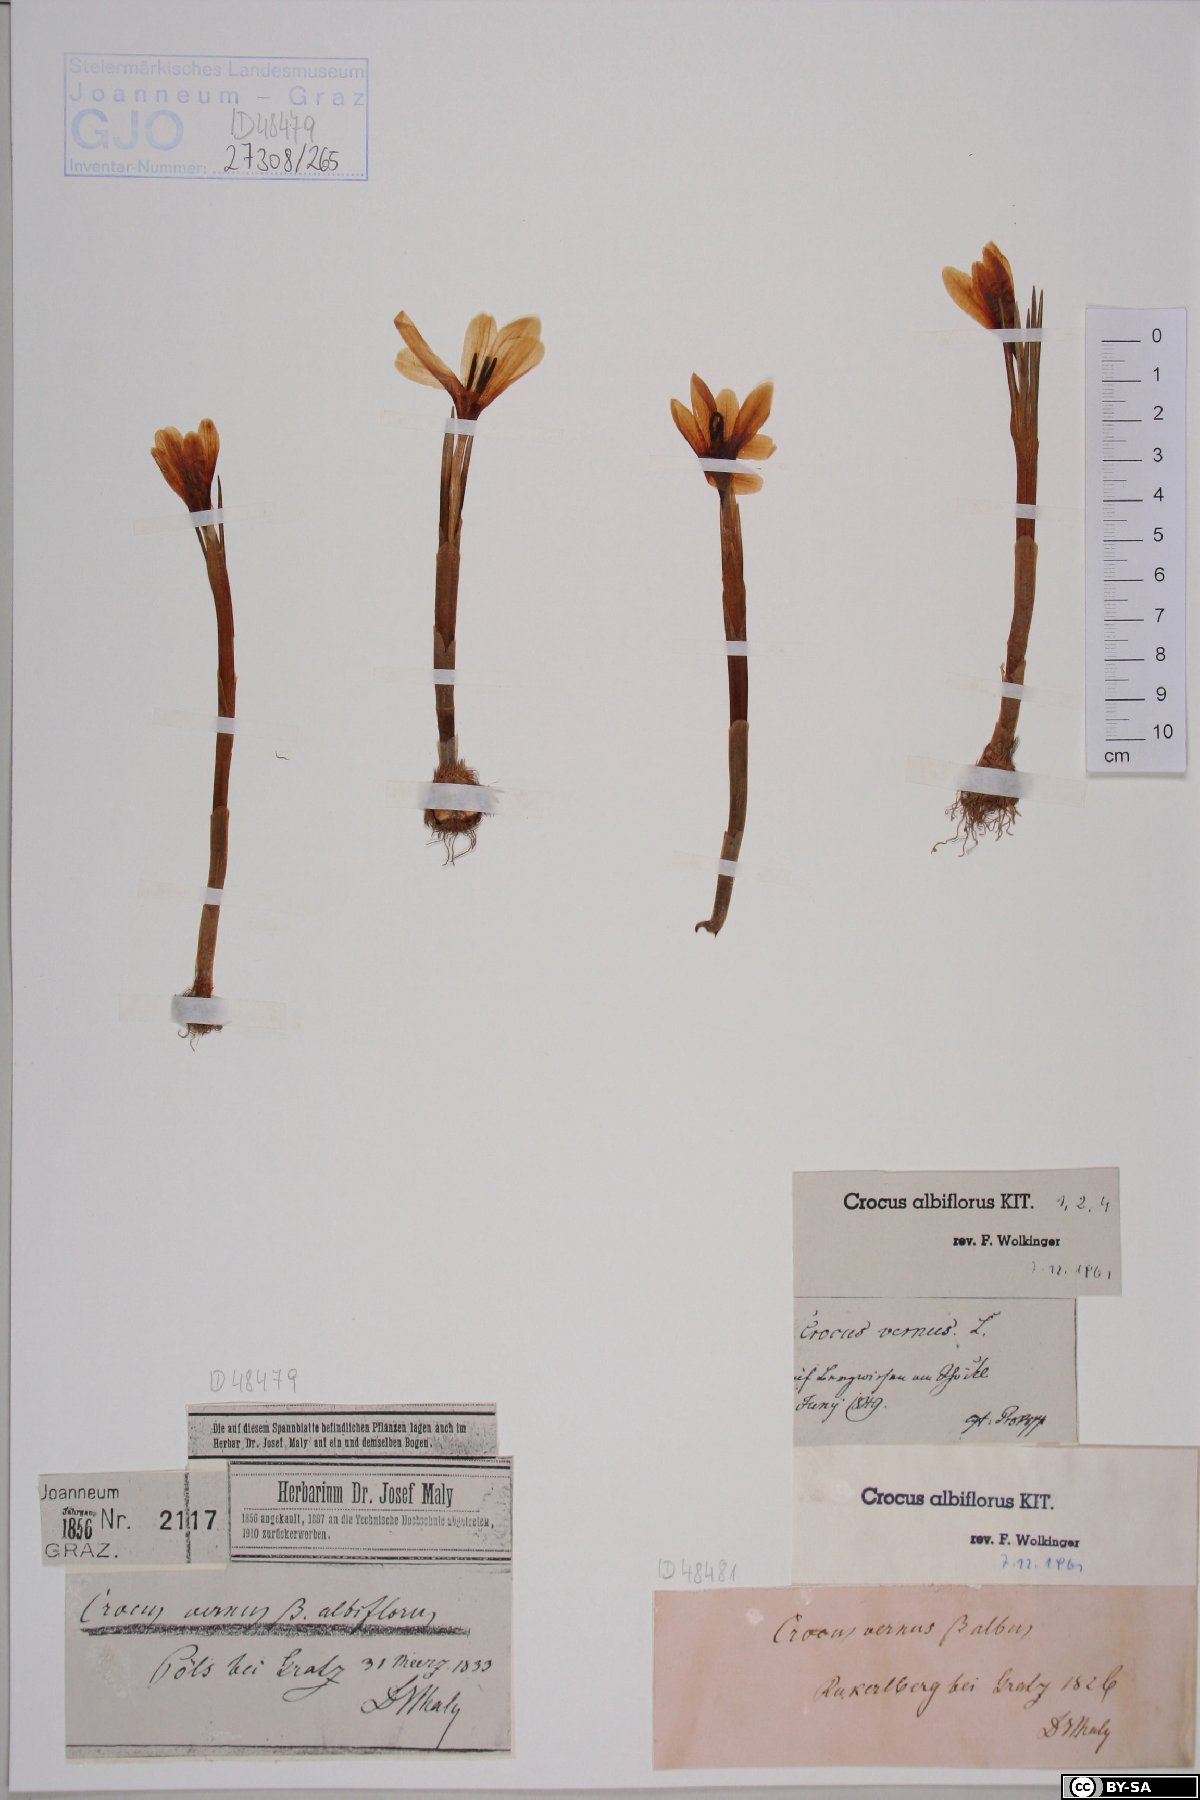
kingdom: Plantae
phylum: Tracheophyta
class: Liliopsida
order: Asparagales
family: Iridaceae
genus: Crocus
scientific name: Crocus vernus
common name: Spring crocus
